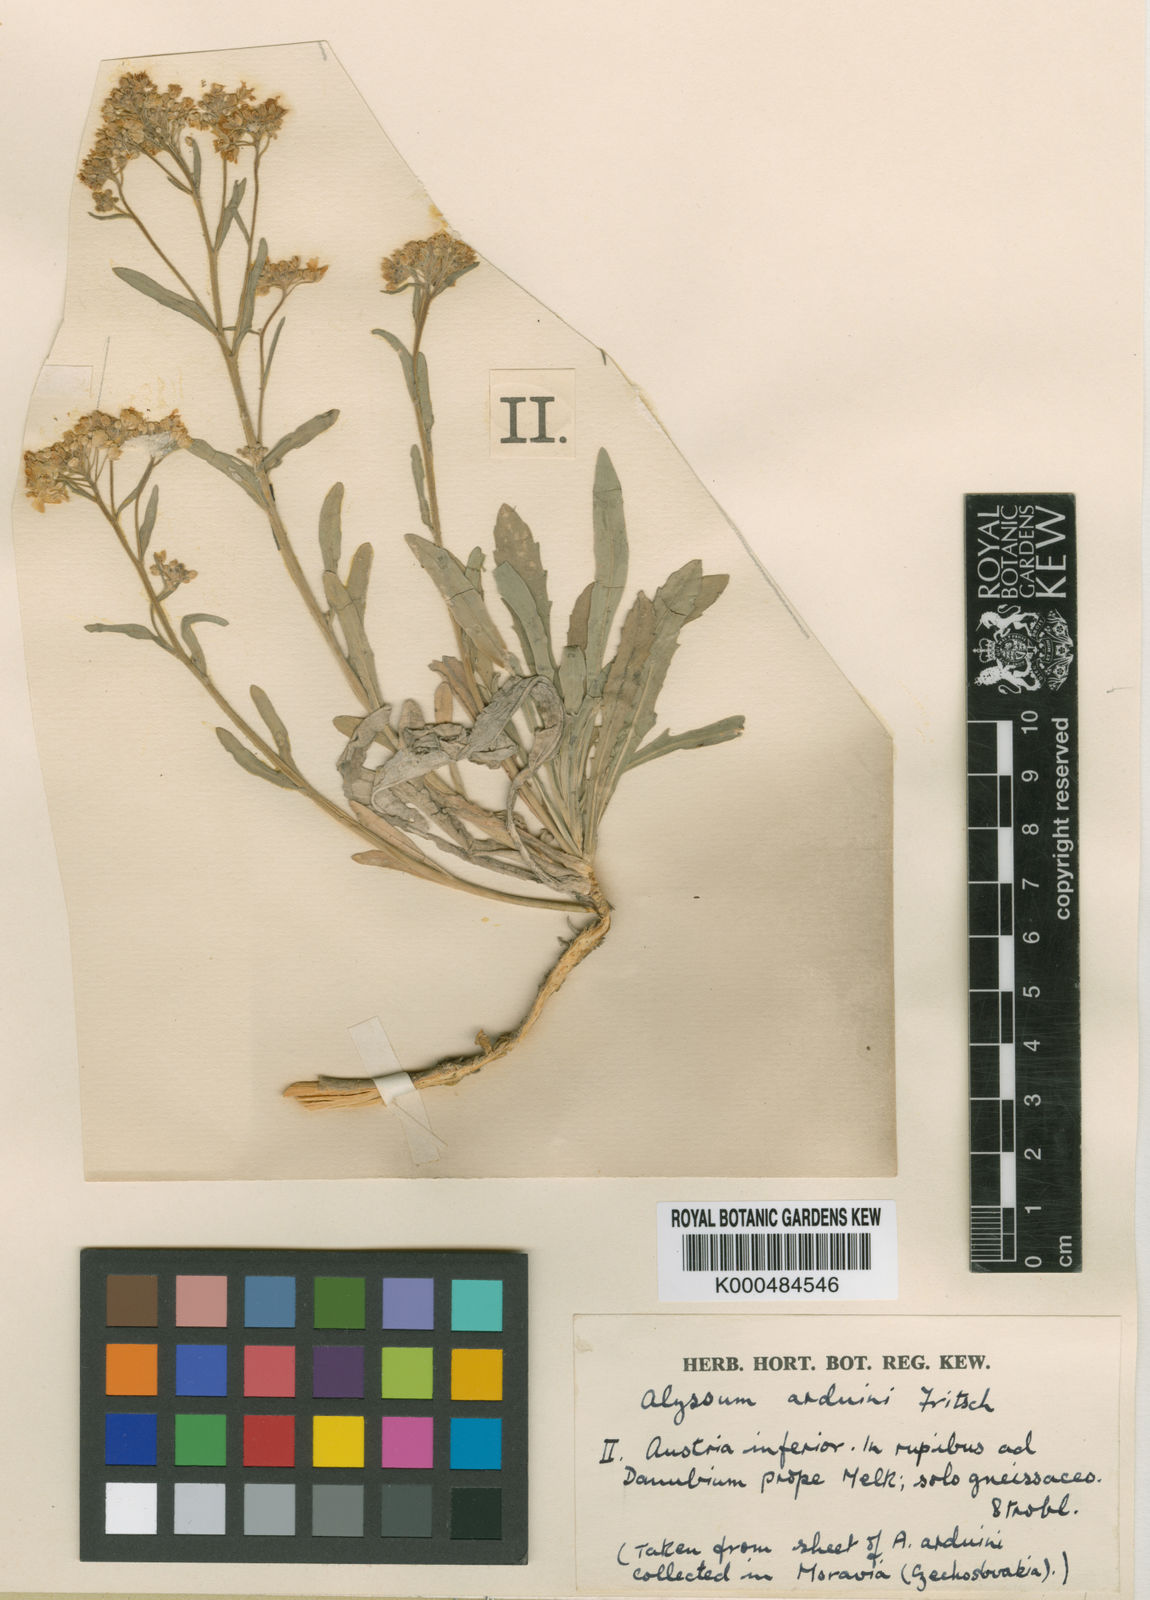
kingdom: Plantae
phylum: Tracheophyta
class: Magnoliopsida
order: Brassicales
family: Brassicaceae
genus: Aurinia
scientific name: Aurinia saxatilis
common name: Golden-tuft alyssum
